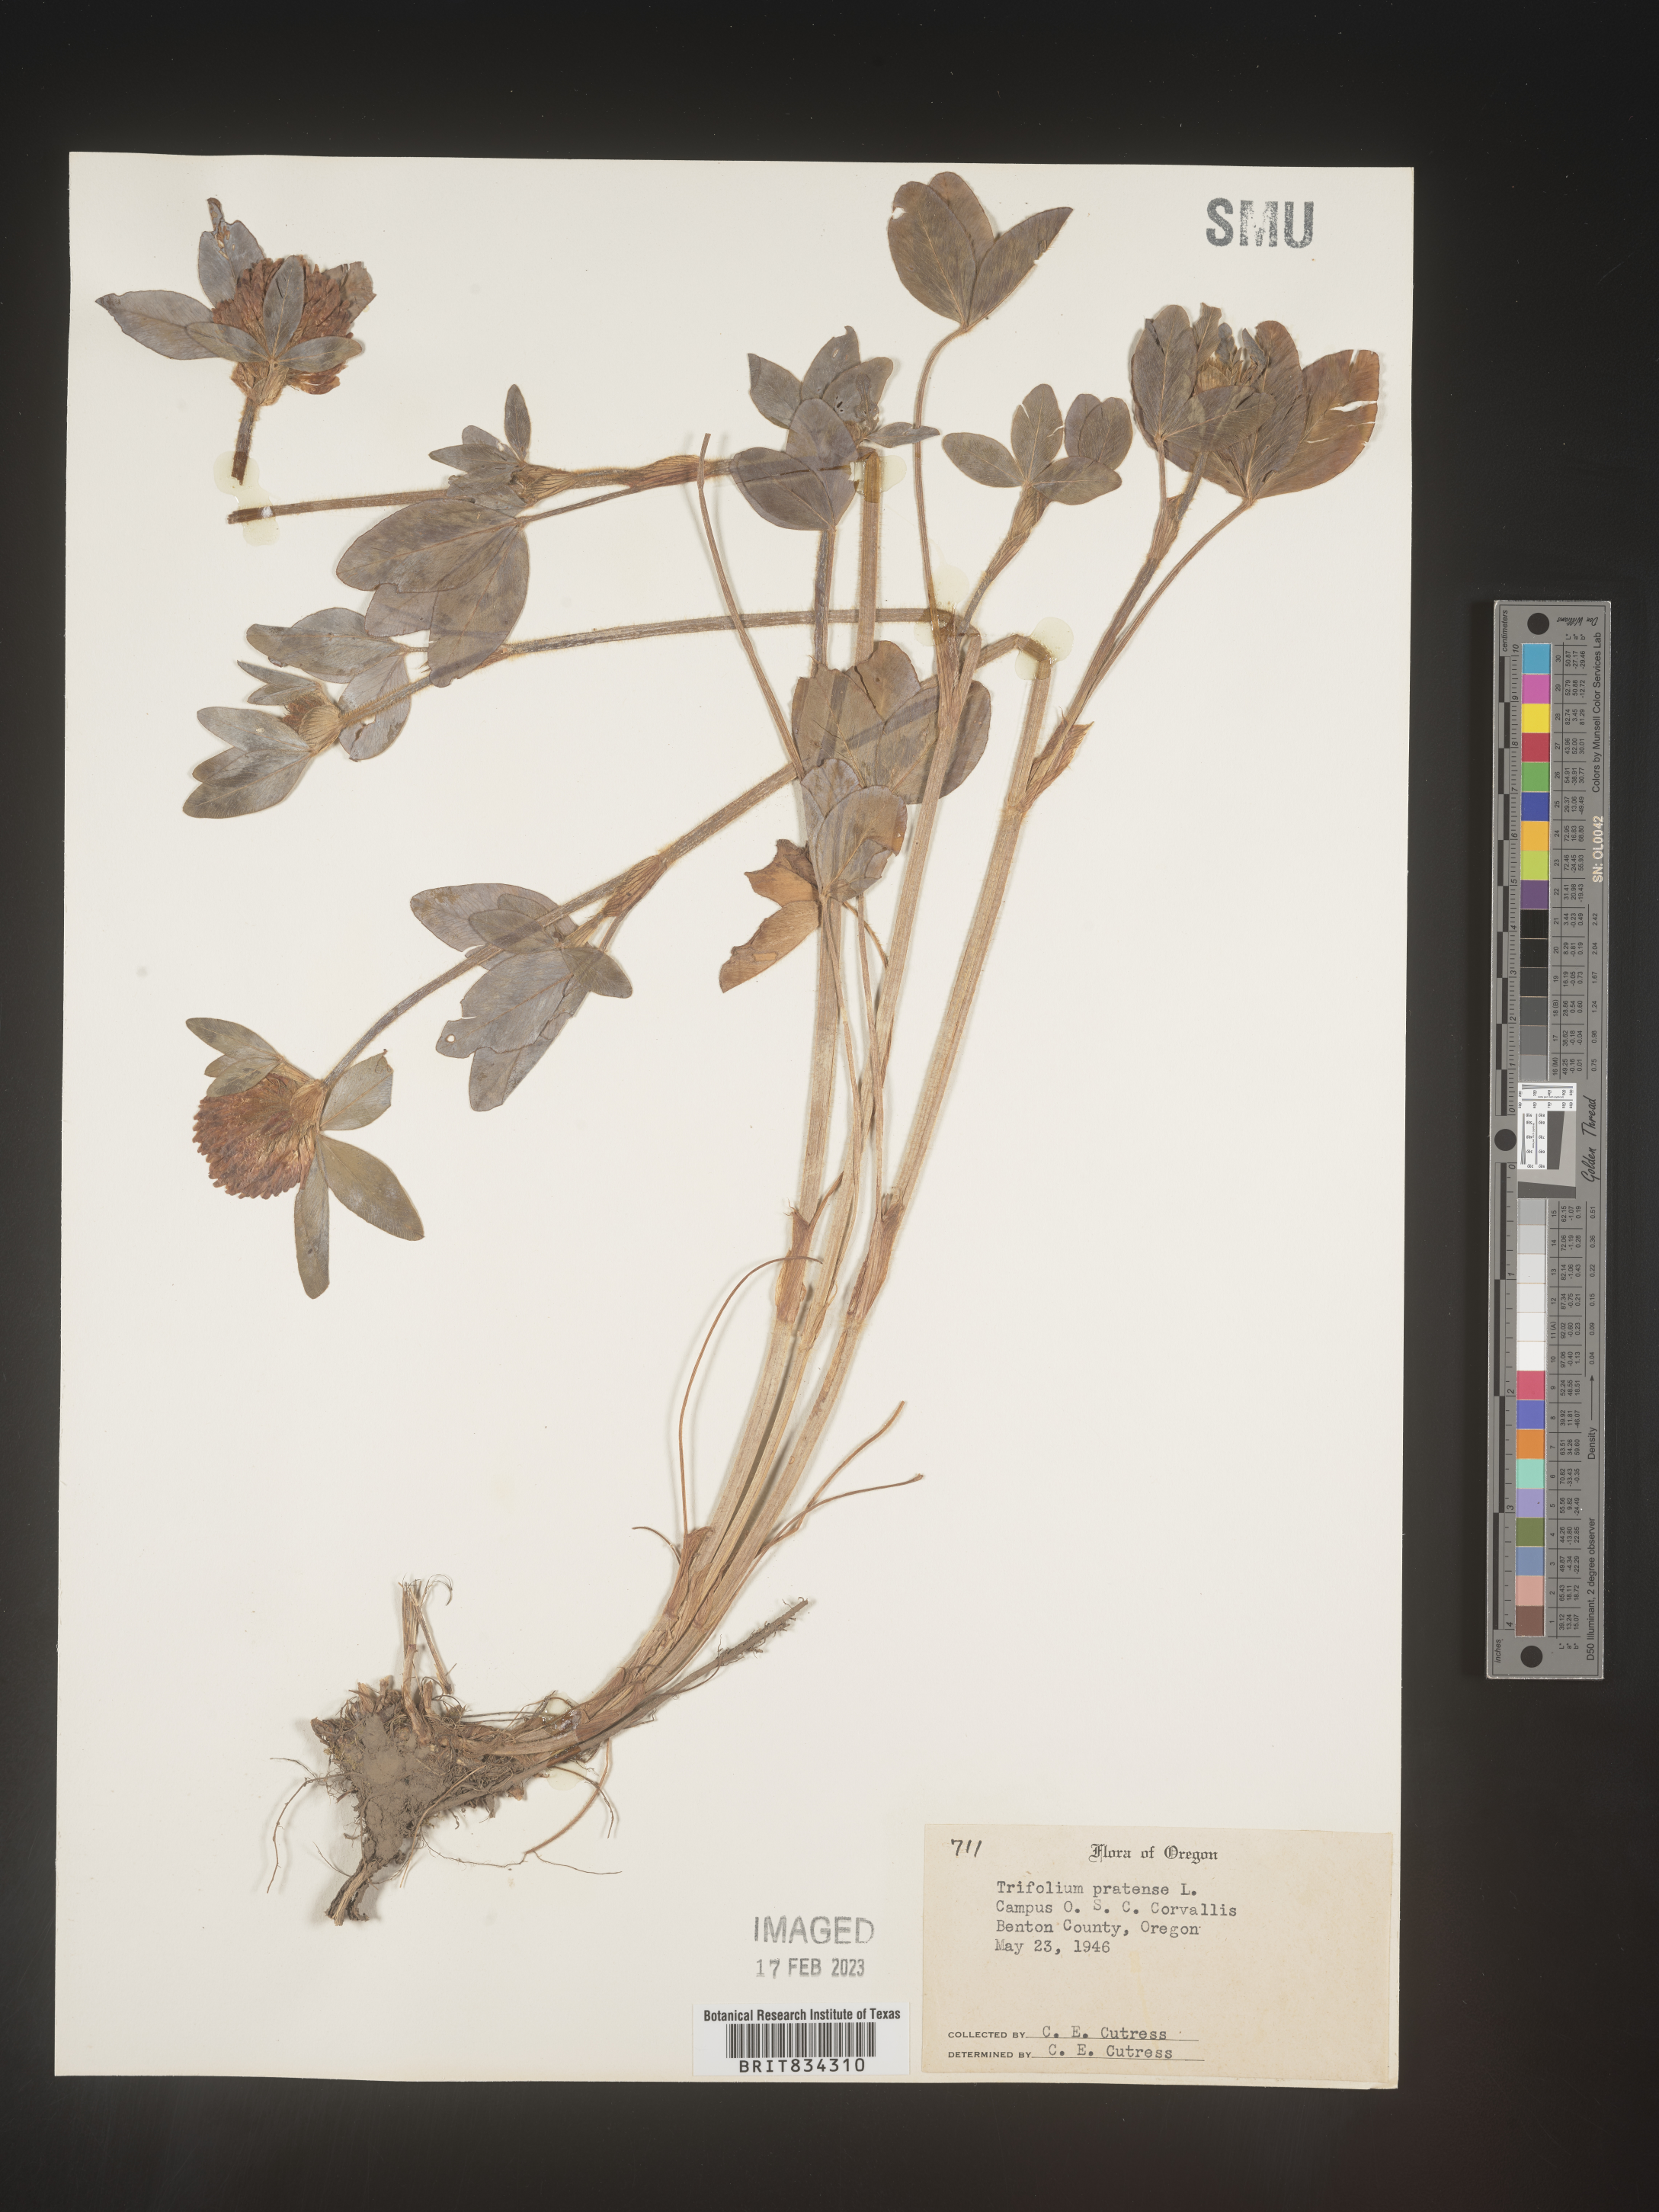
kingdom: Plantae
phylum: Tracheophyta
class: Magnoliopsida
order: Fabales
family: Fabaceae
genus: Trifolium
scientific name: Trifolium pratense
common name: Red clover
